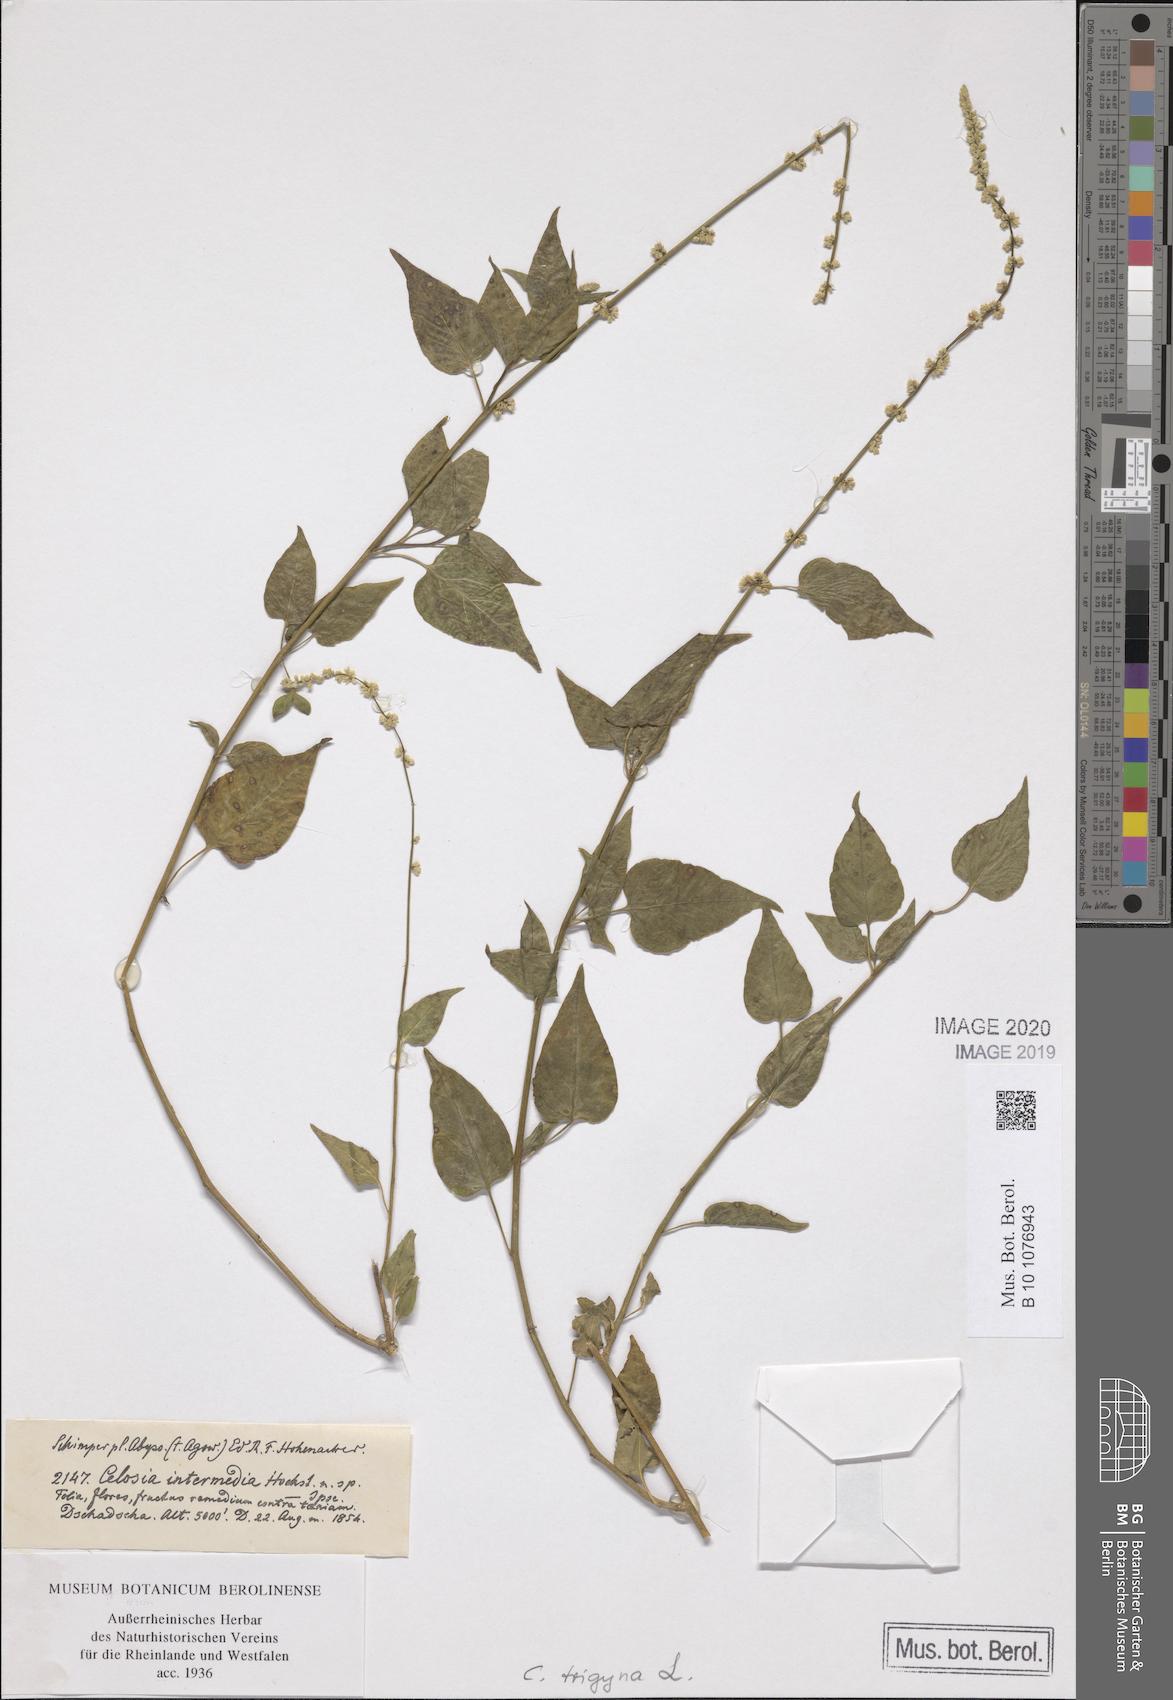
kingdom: Plantae
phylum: Tracheophyta
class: Magnoliopsida
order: Caryophyllales
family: Amaranthaceae
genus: Celosia
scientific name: Celosia trigyna
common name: Woolflower
